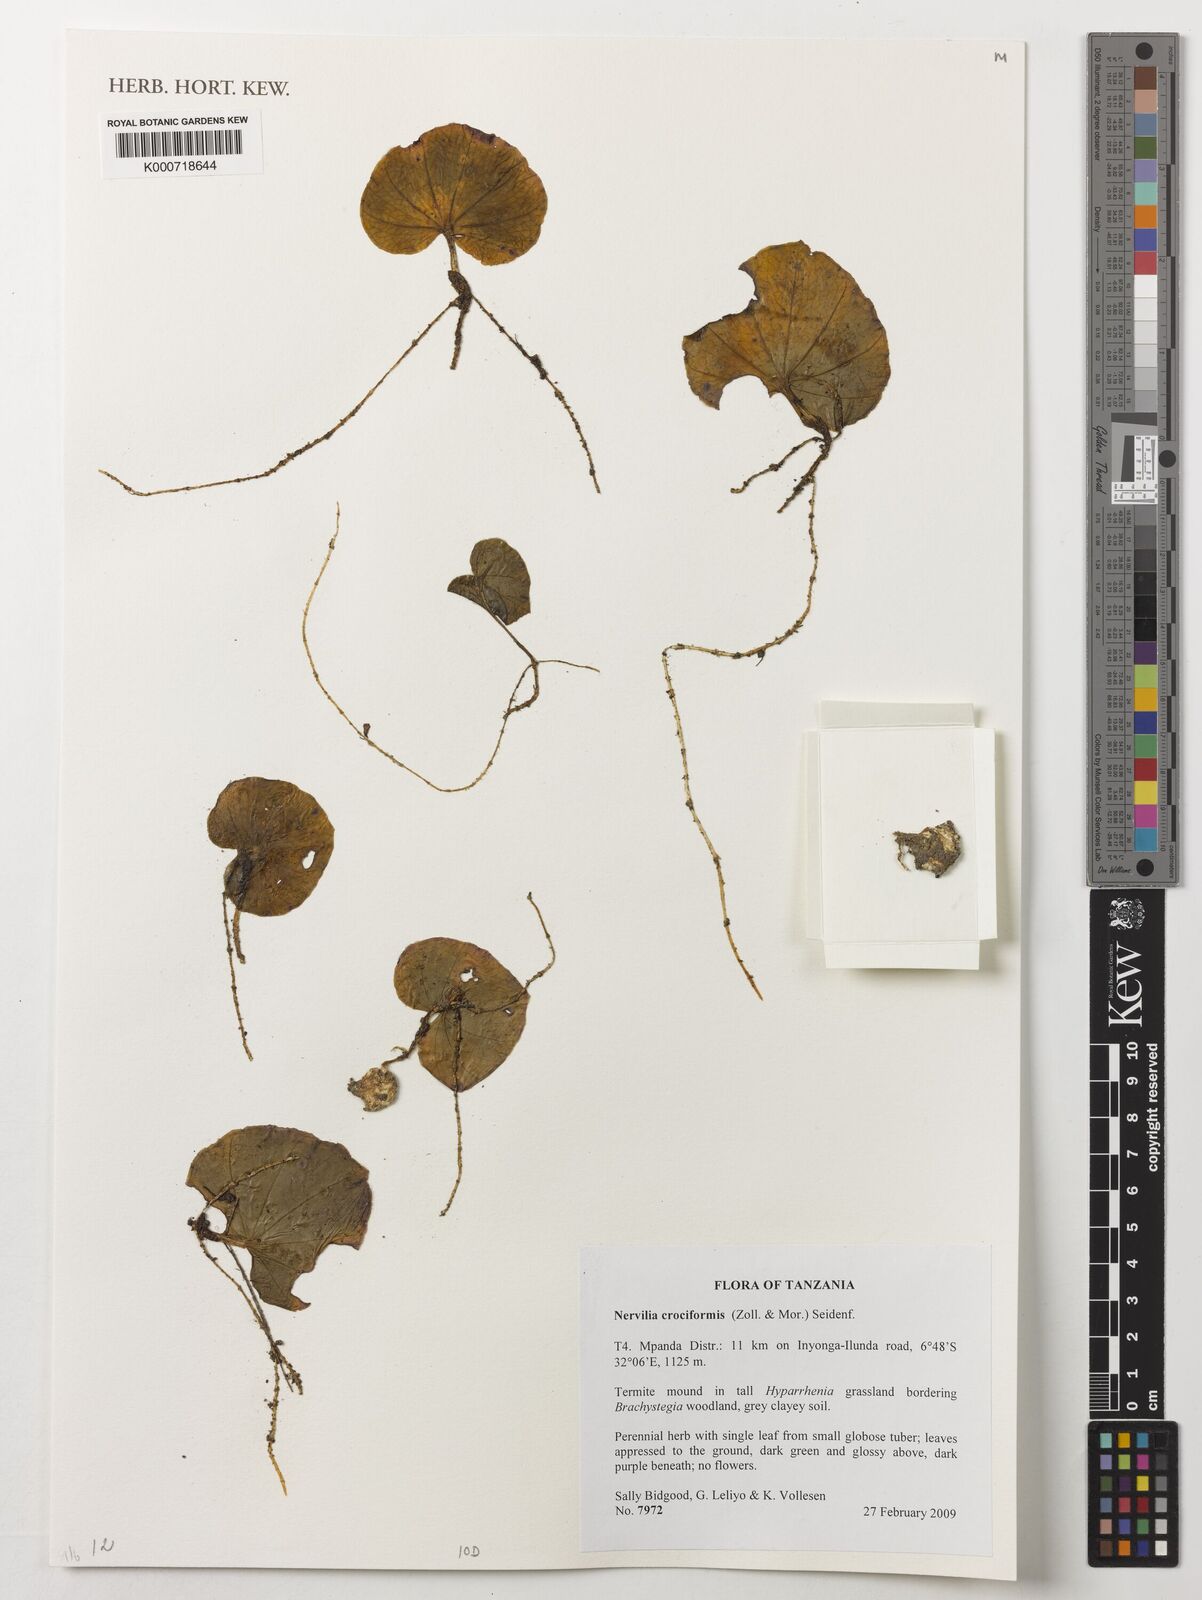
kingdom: Plantae
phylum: Tracheophyta
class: Liliopsida
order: Asparagales
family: Orchidaceae
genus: Nervilia
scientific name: Nervilia simplex
